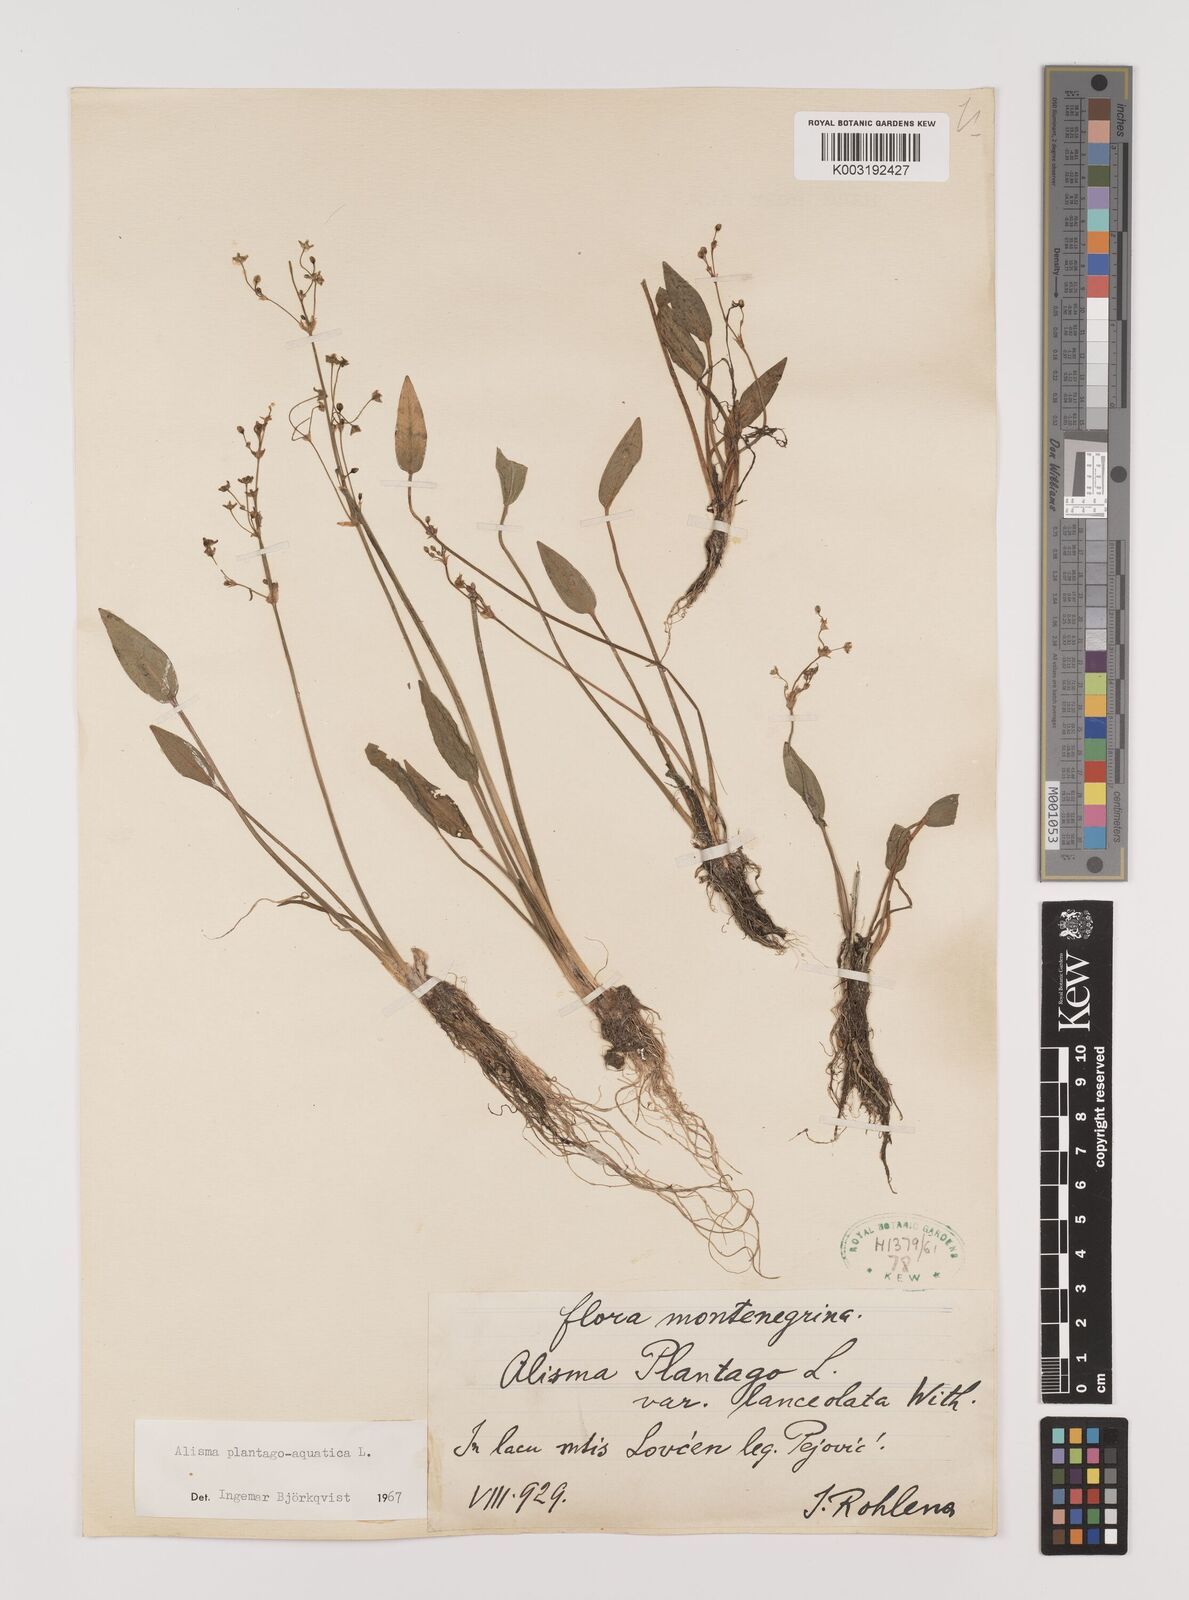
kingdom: Plantae
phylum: Tracheophyta
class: Liliopsida
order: Alismatales
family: Alismataceae
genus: Alisma
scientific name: Alisma triviale
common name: Northern water-plantain
